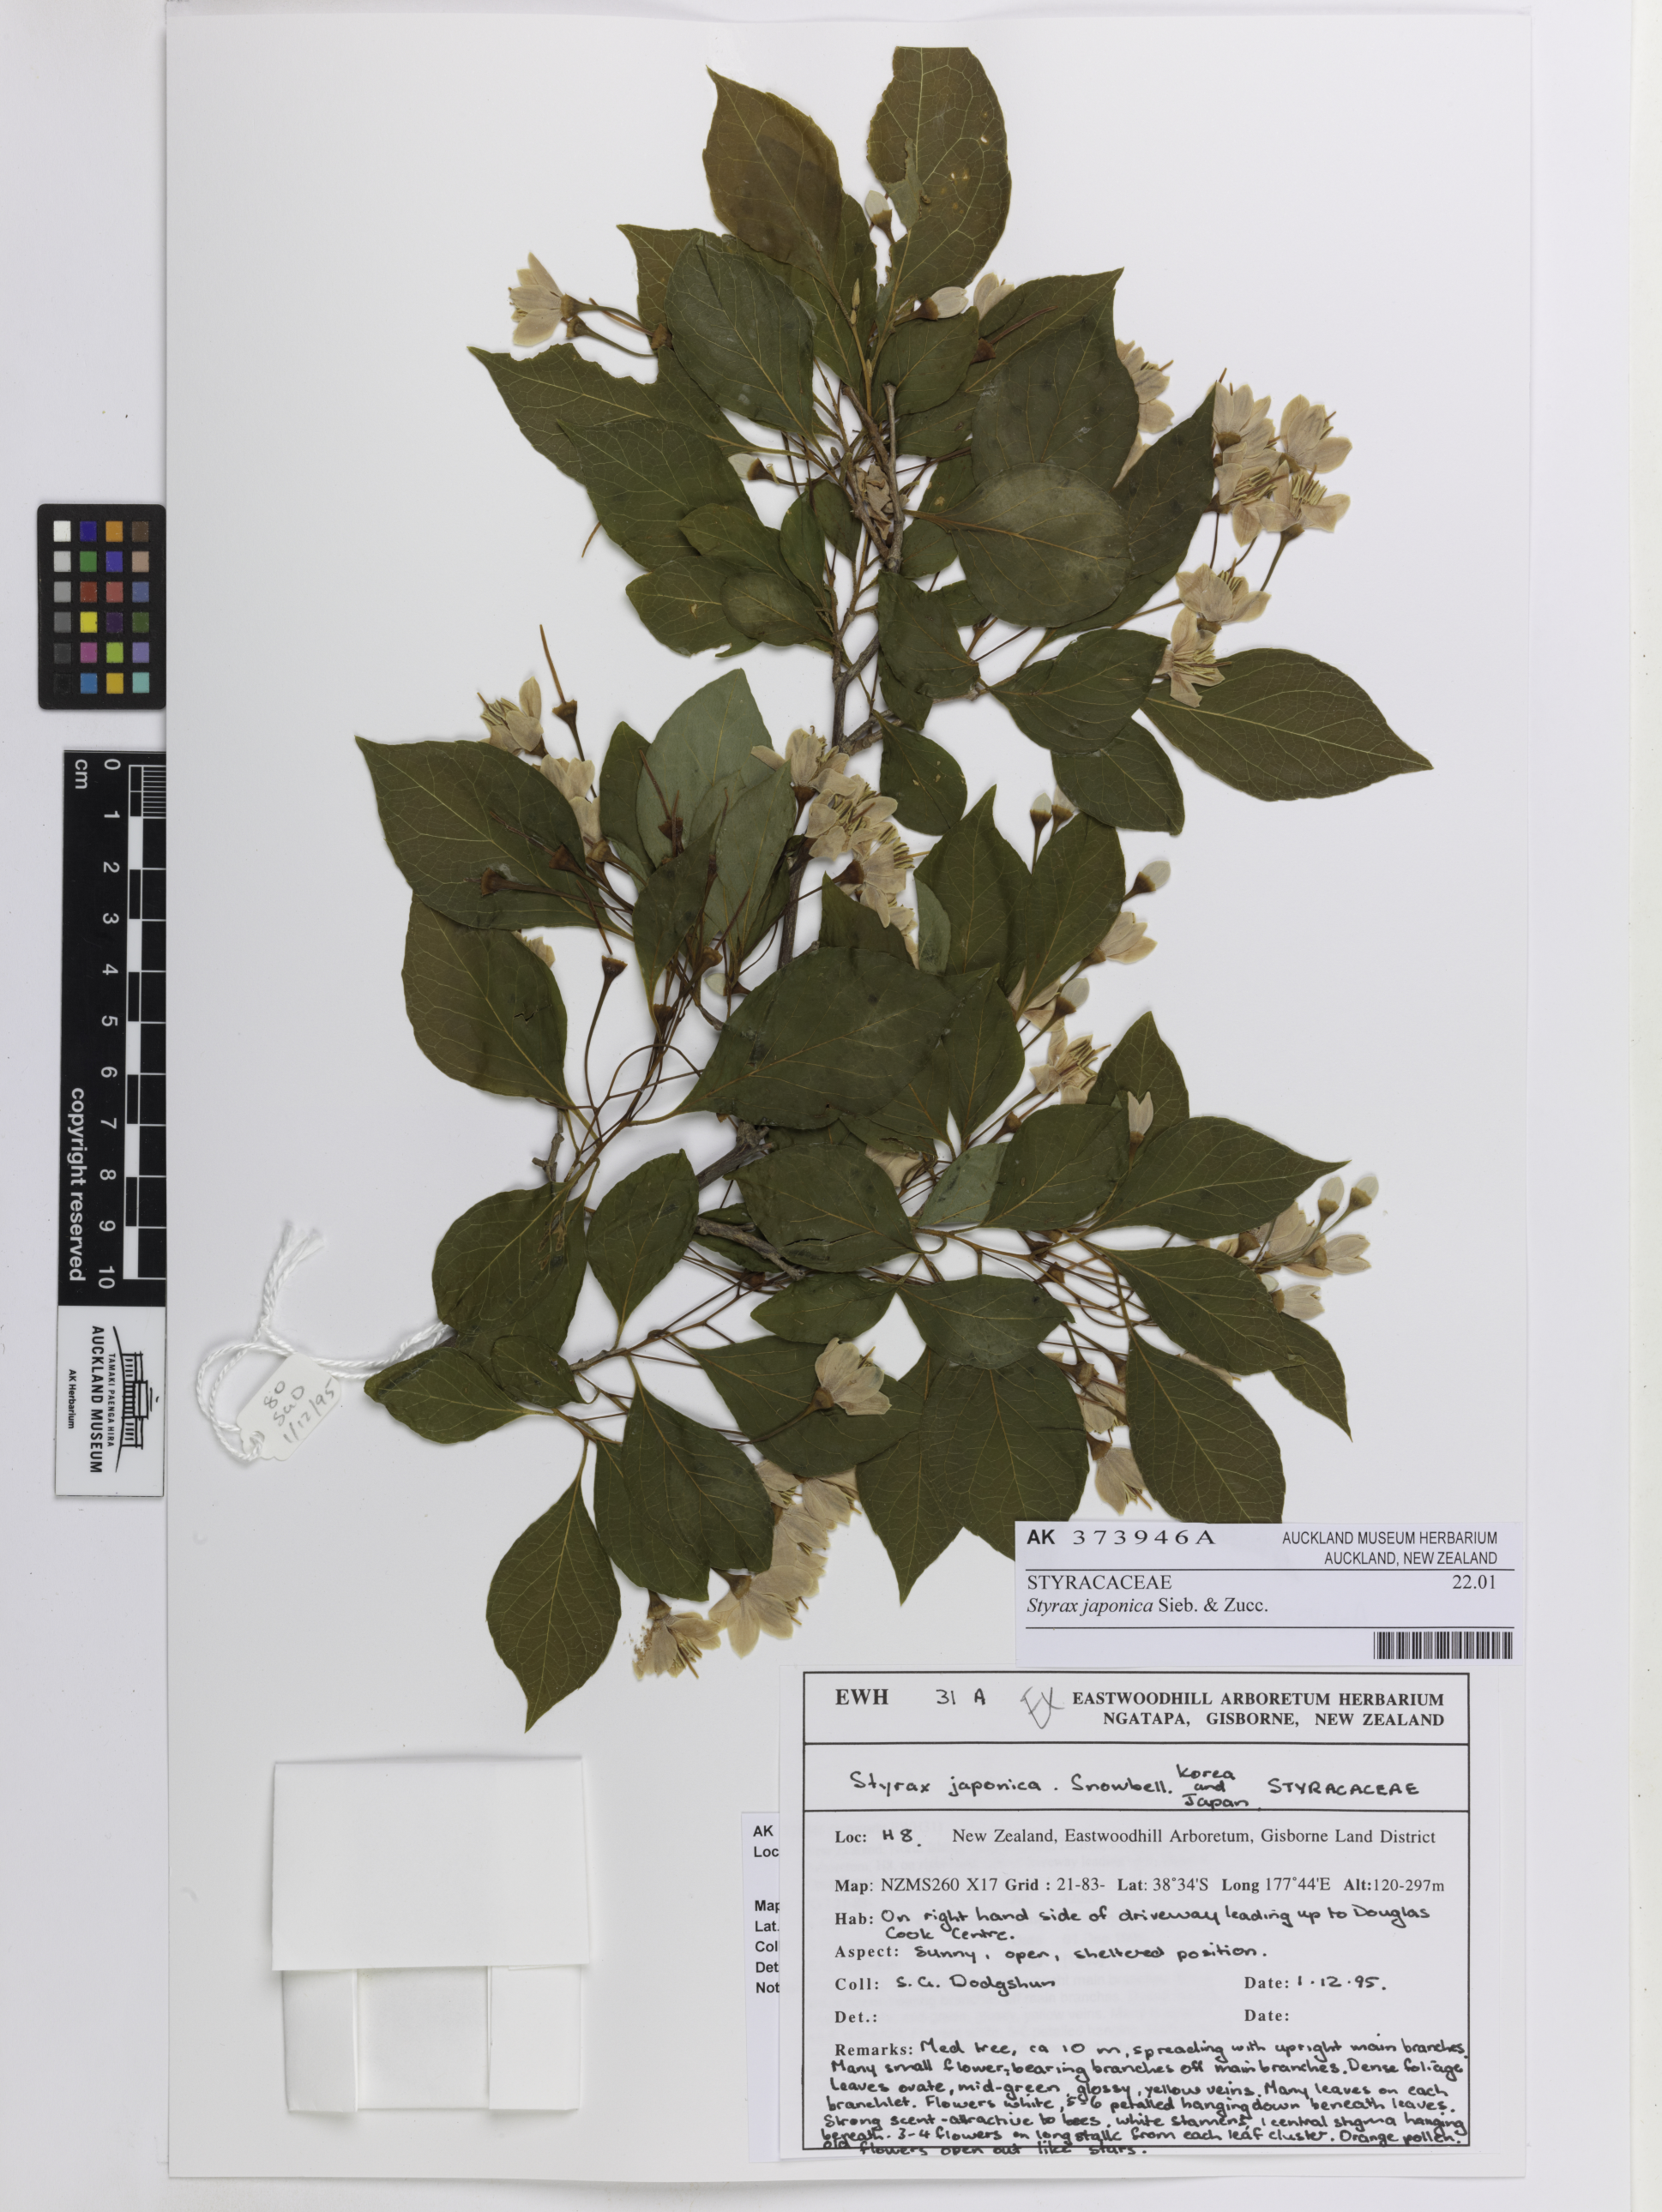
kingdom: Plantae
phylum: Tracheophyta
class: Magnoliopsida
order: Ericales
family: Styracaceae
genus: Styrax
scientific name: Styrax japonicus
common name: Japanese snowbell
